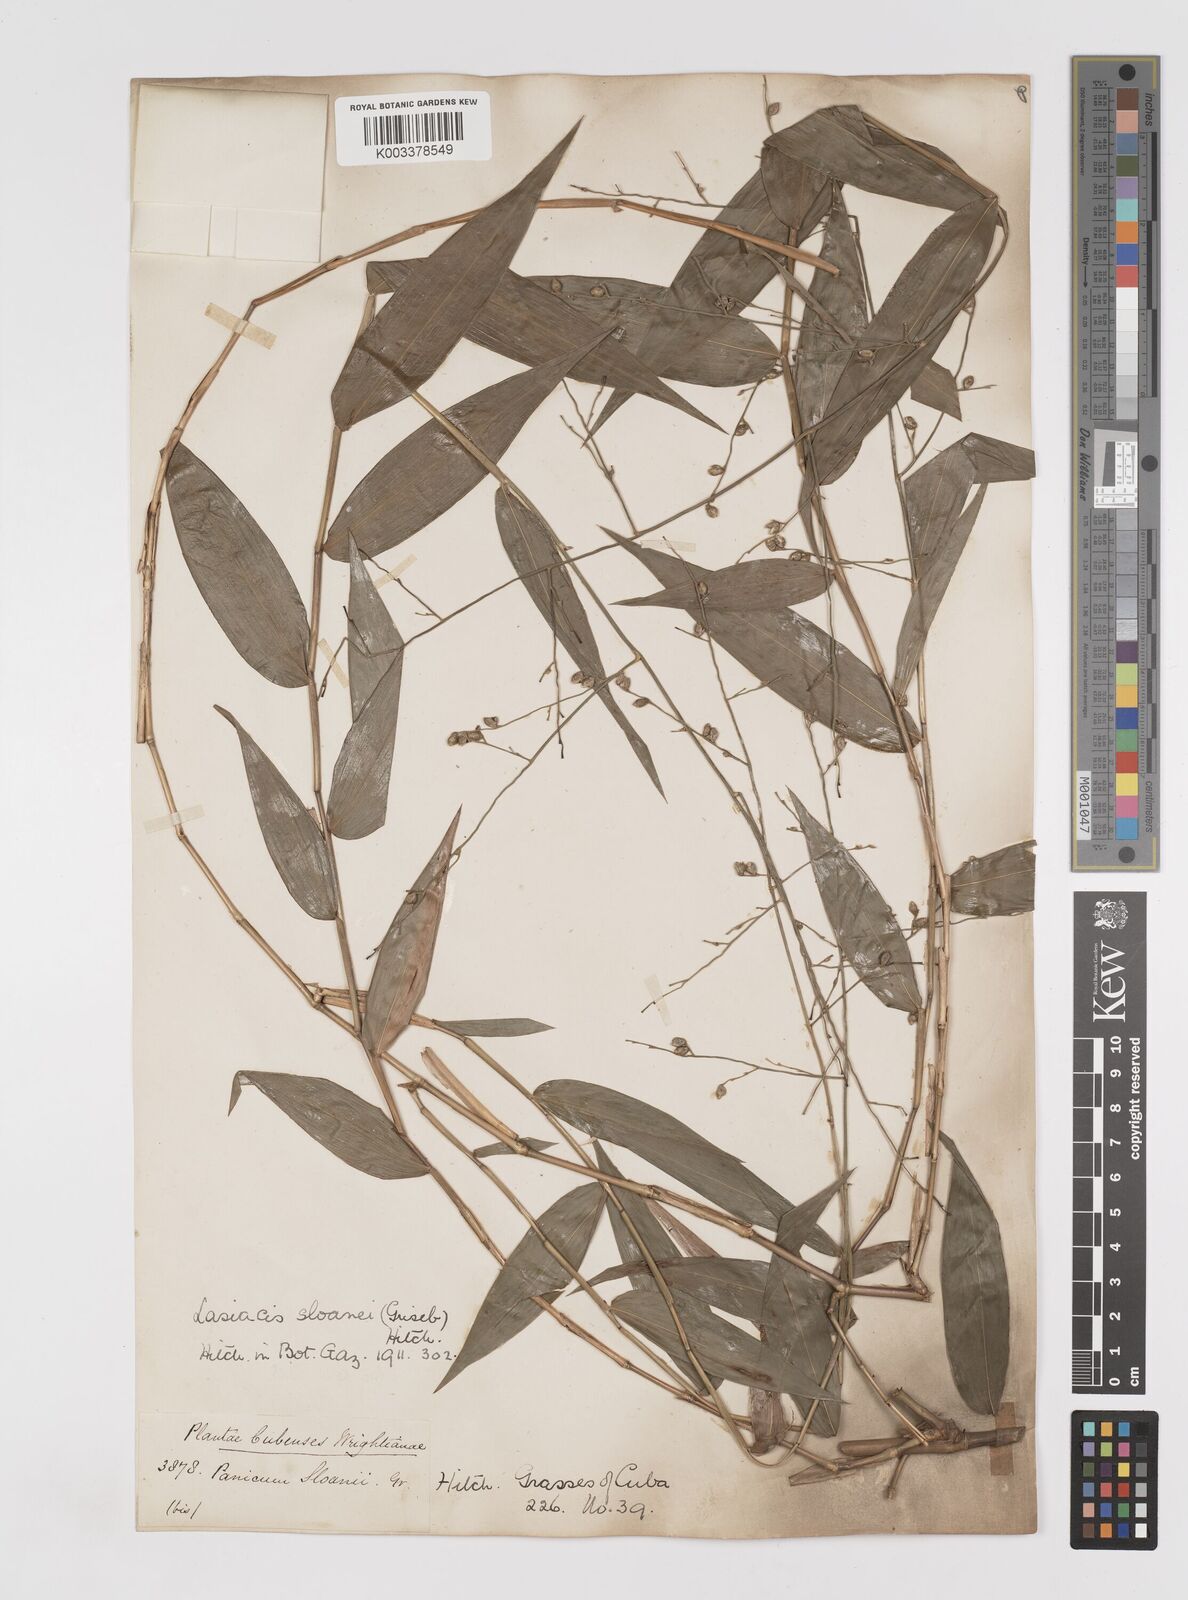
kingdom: Plantae
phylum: Tracheophyta
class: Liliopsida
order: Poales
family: Poaceae
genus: Lasiacis
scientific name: Lasiacis sloanei
